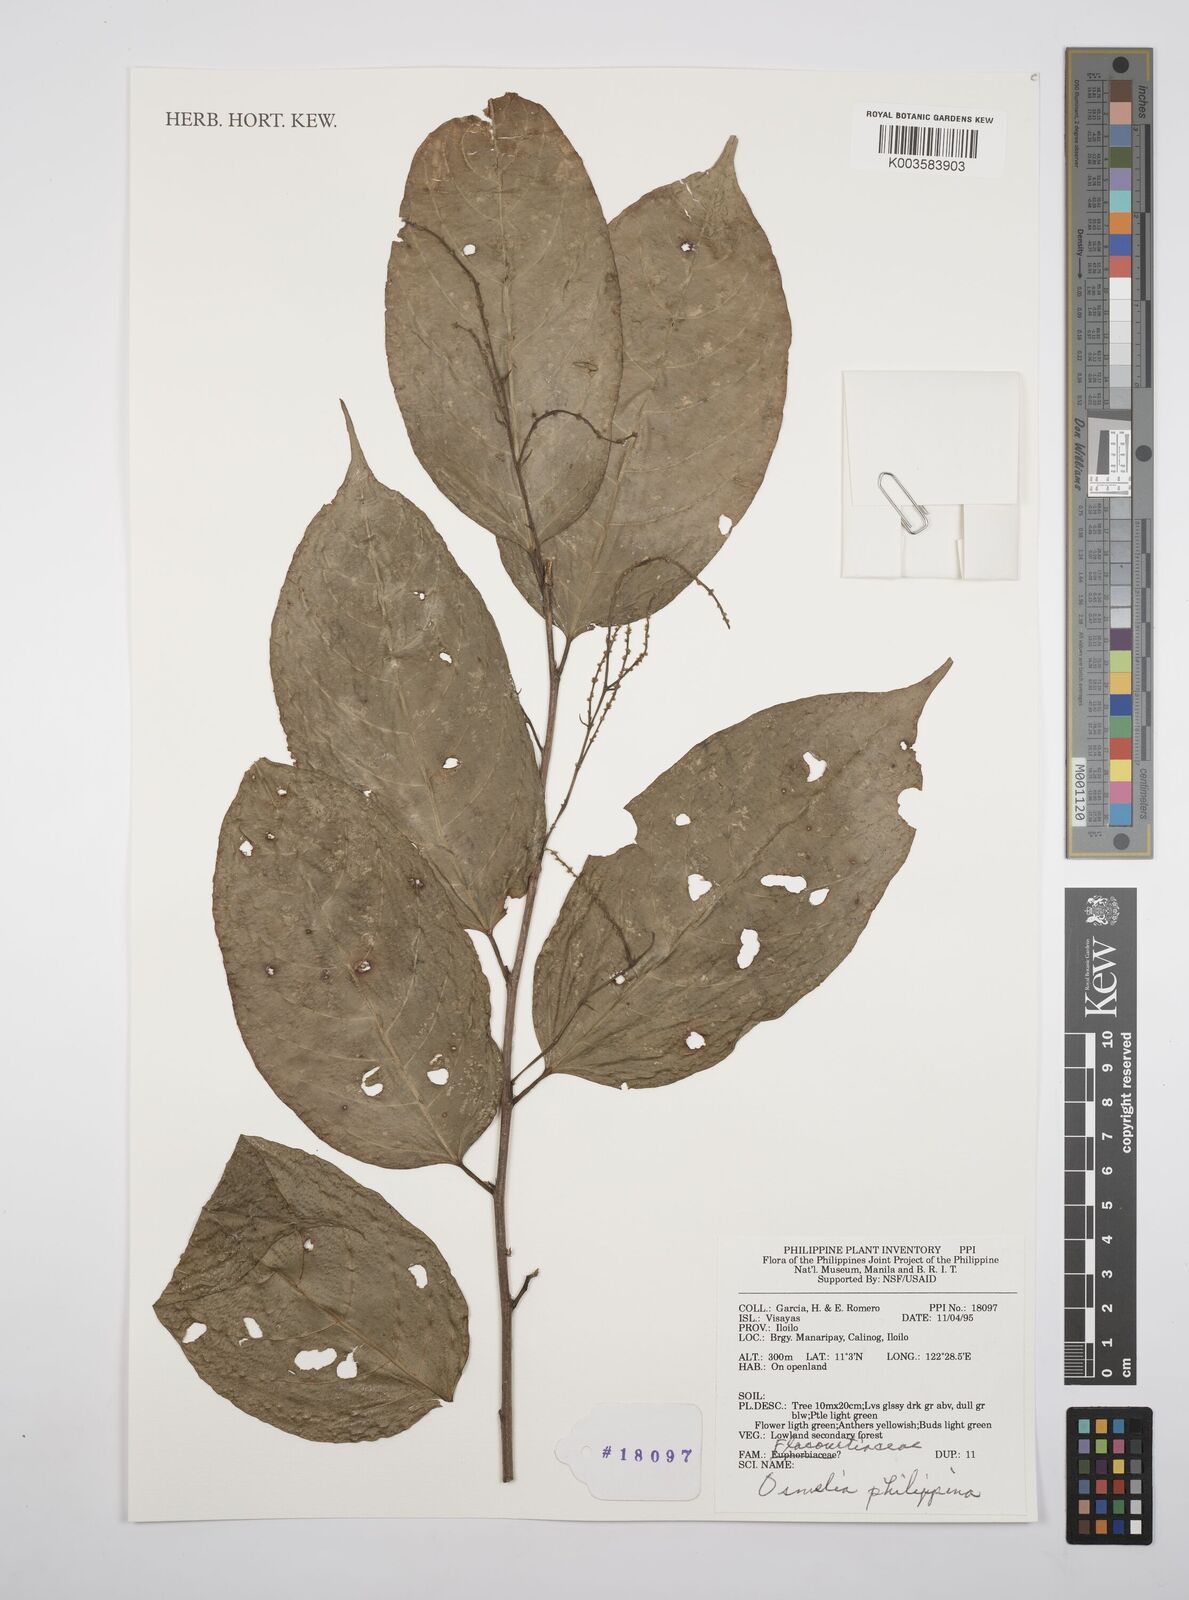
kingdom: Plantae
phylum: Tracheophyta
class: Magnoliopsida
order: Malpighiales
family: Salicaceae
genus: Osmelia
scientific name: Osmelia philippina
